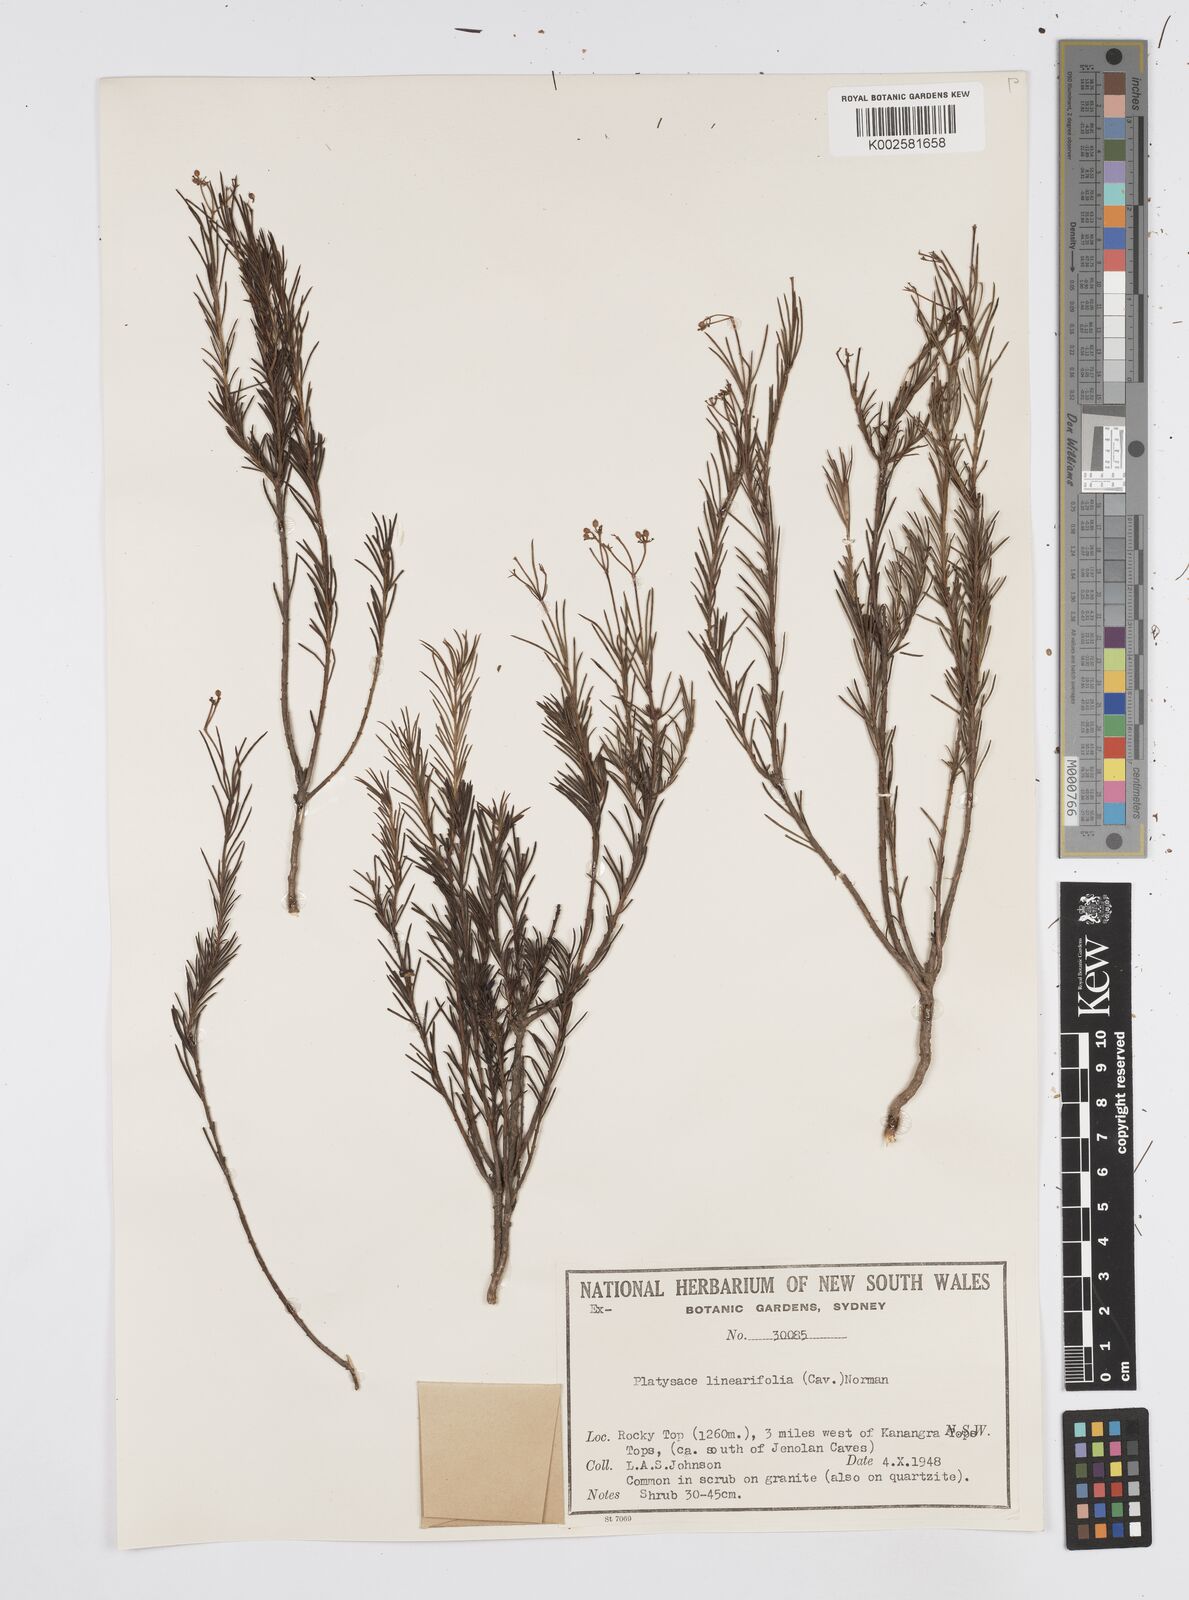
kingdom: Plantae
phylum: Tracheophyta
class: Magnoliopsida
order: Apiales
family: Apiaceae
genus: Platysace
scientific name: Platysace linearifolia
